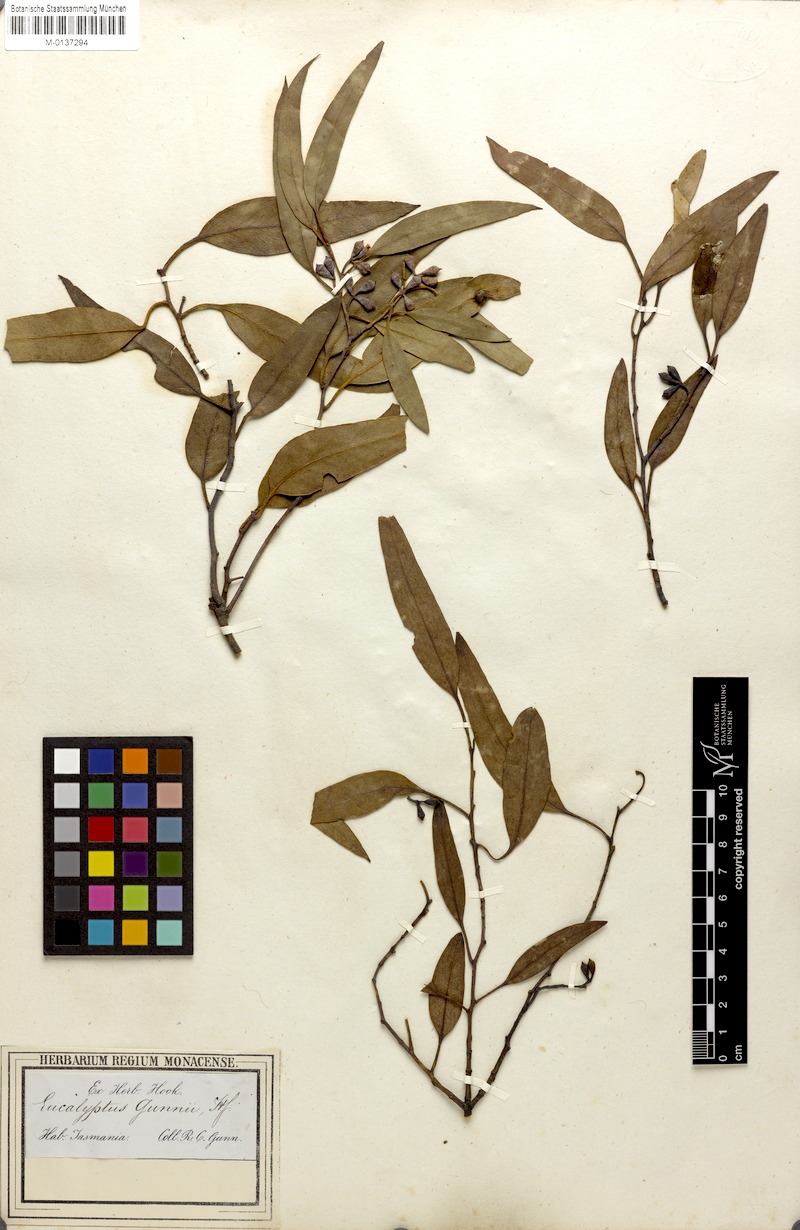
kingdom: Plantae
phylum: Tracheophyta
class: Magnoliopsida
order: Myrtales
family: Myrtaceae
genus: Eucalyptus
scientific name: Eucalyptus gunnii
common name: Cider gum
